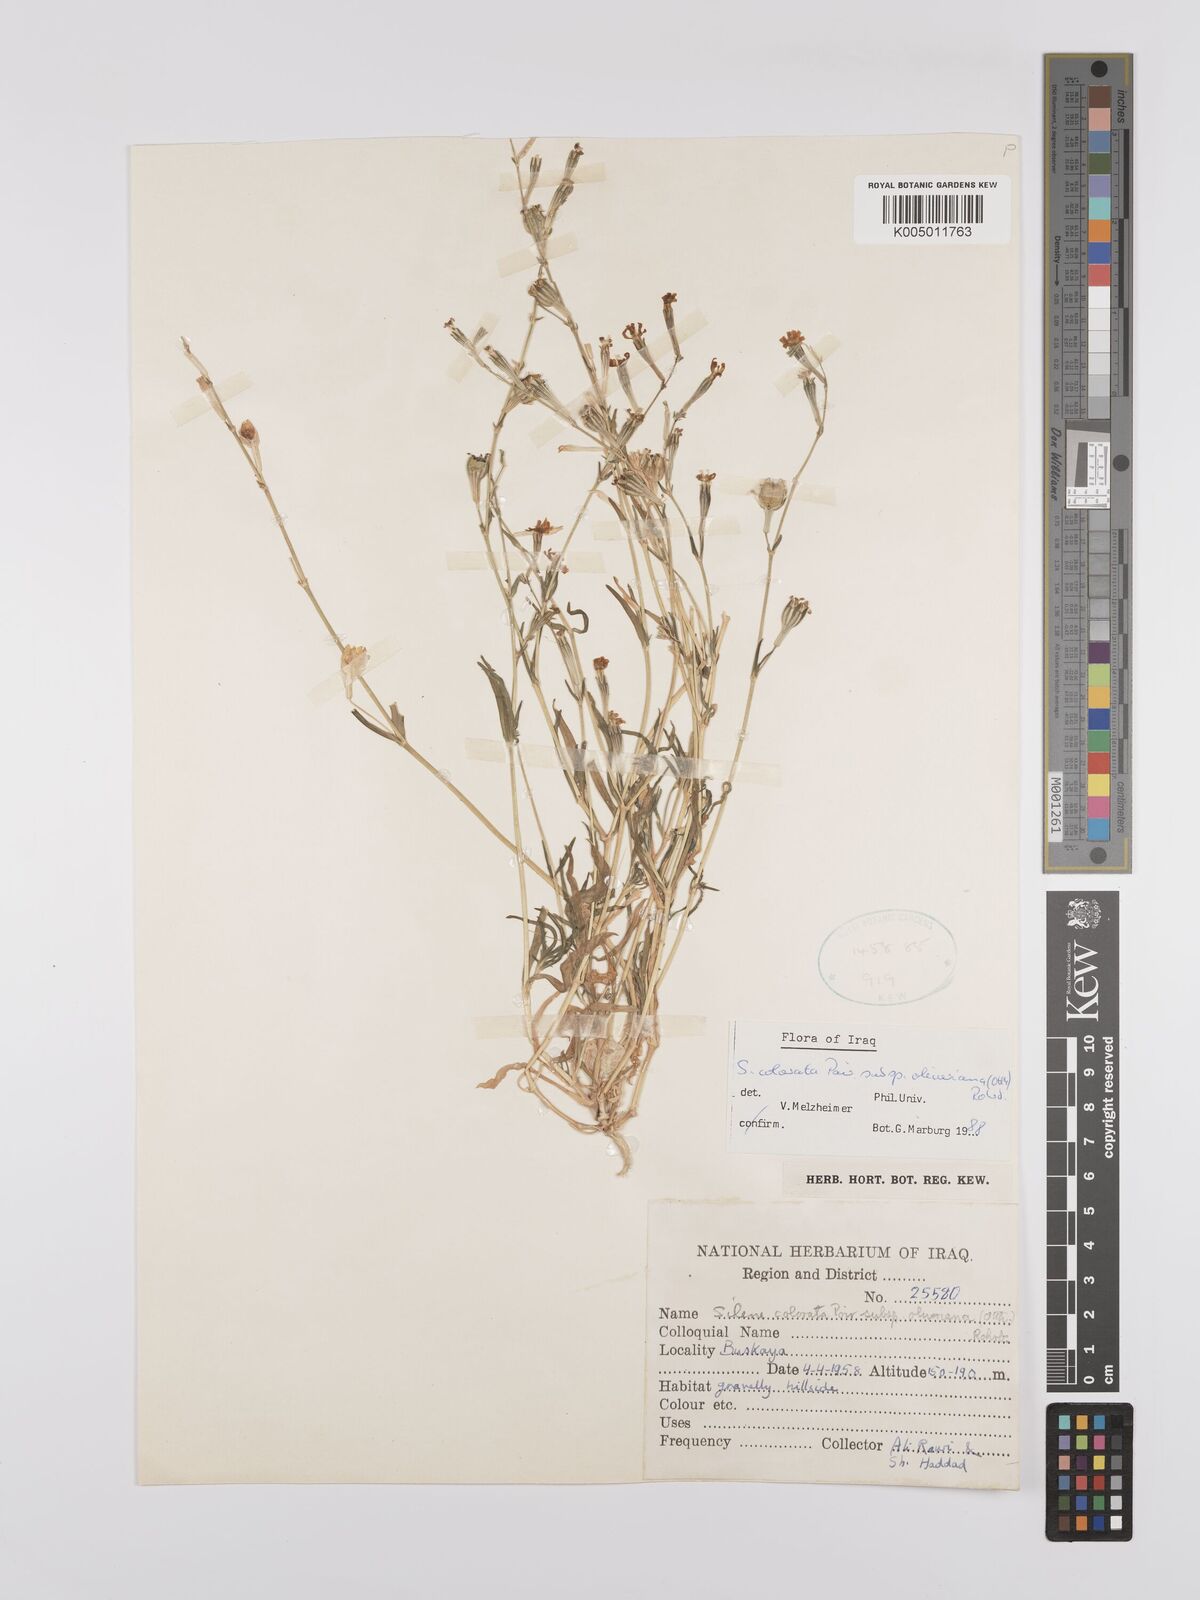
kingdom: Plantae
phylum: Tracheophyta
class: Magnoliopsida
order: Caryophyllales
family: Caryophyllaceae
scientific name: Caryophyllaceae
